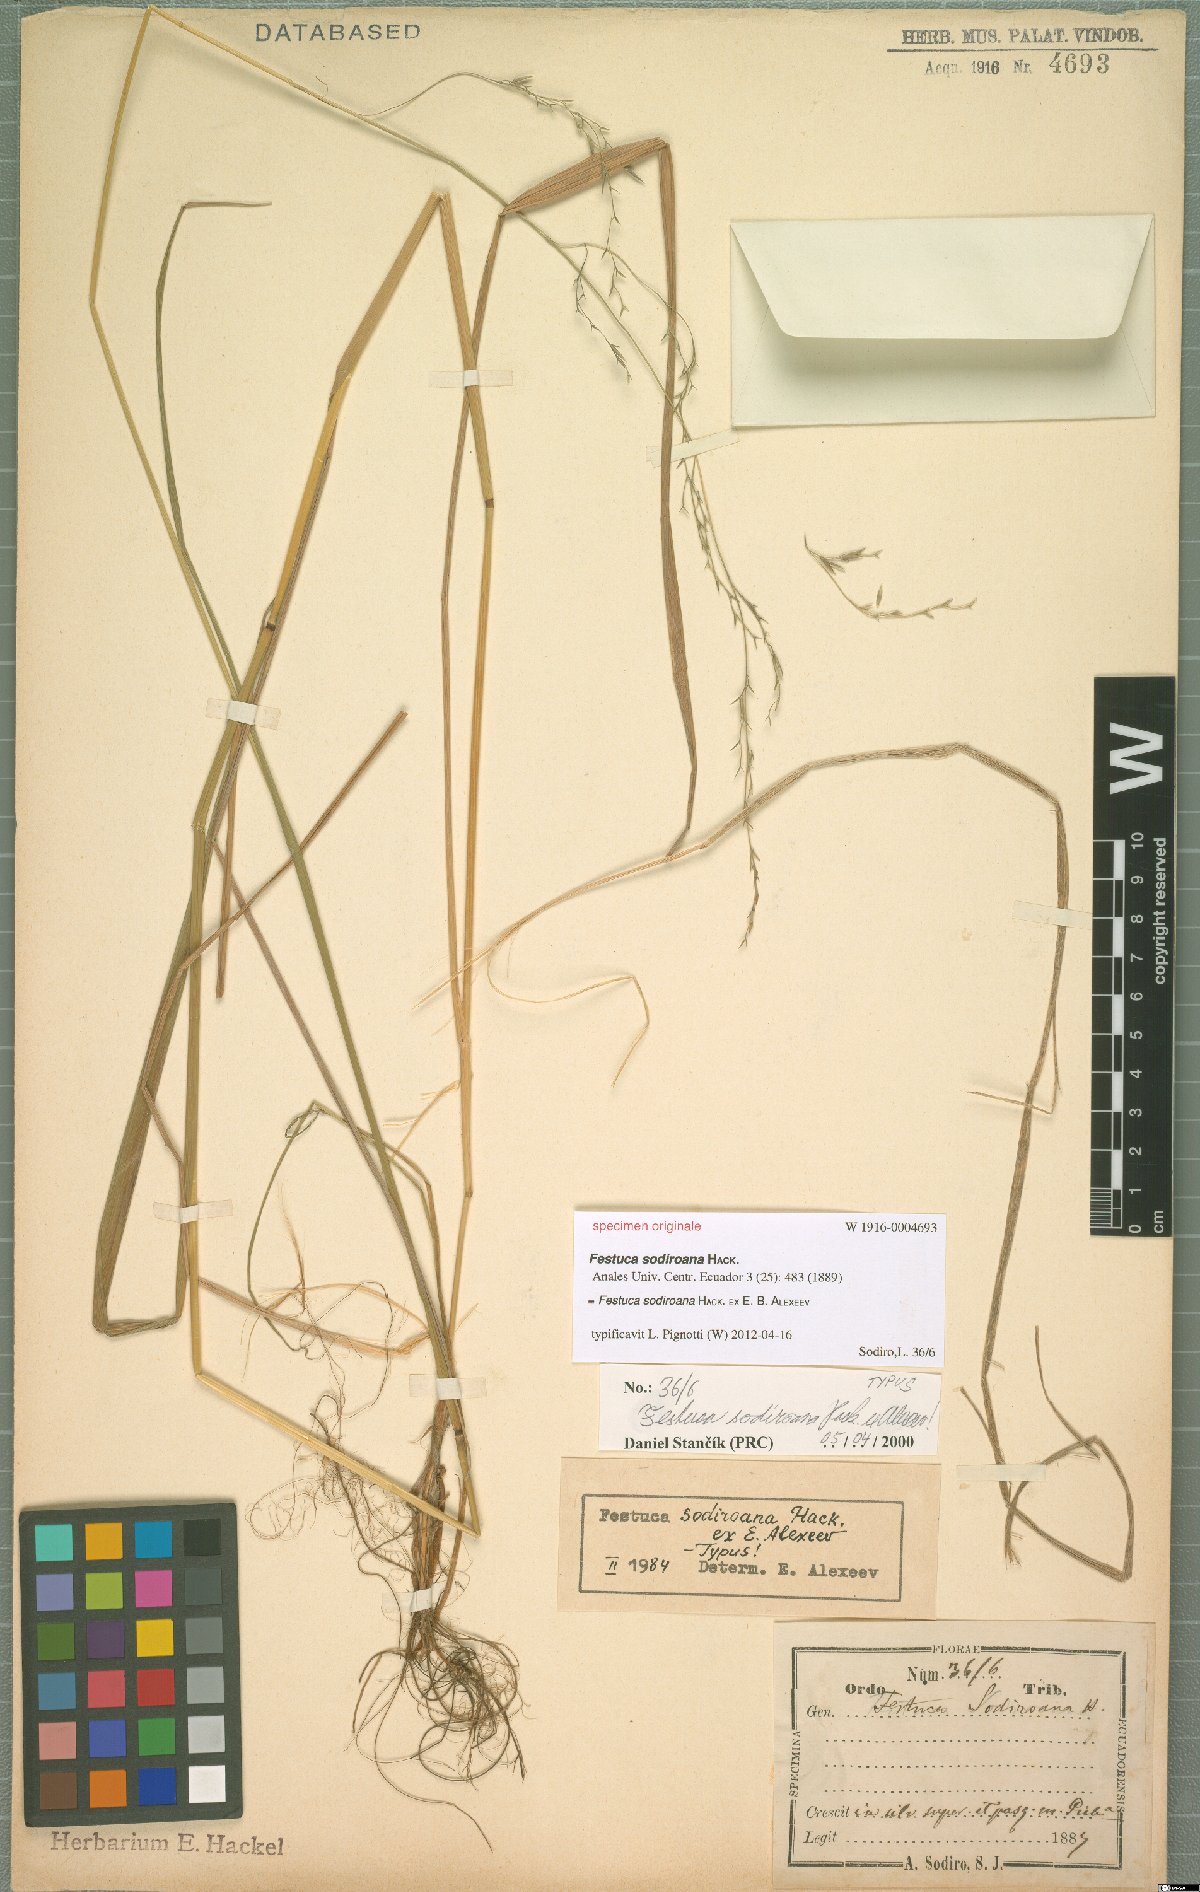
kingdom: Plantae
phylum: Tracheophyta
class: Liliopsida
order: Poales
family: Poaceae
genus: Festuca
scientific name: Festuca sodiroana
